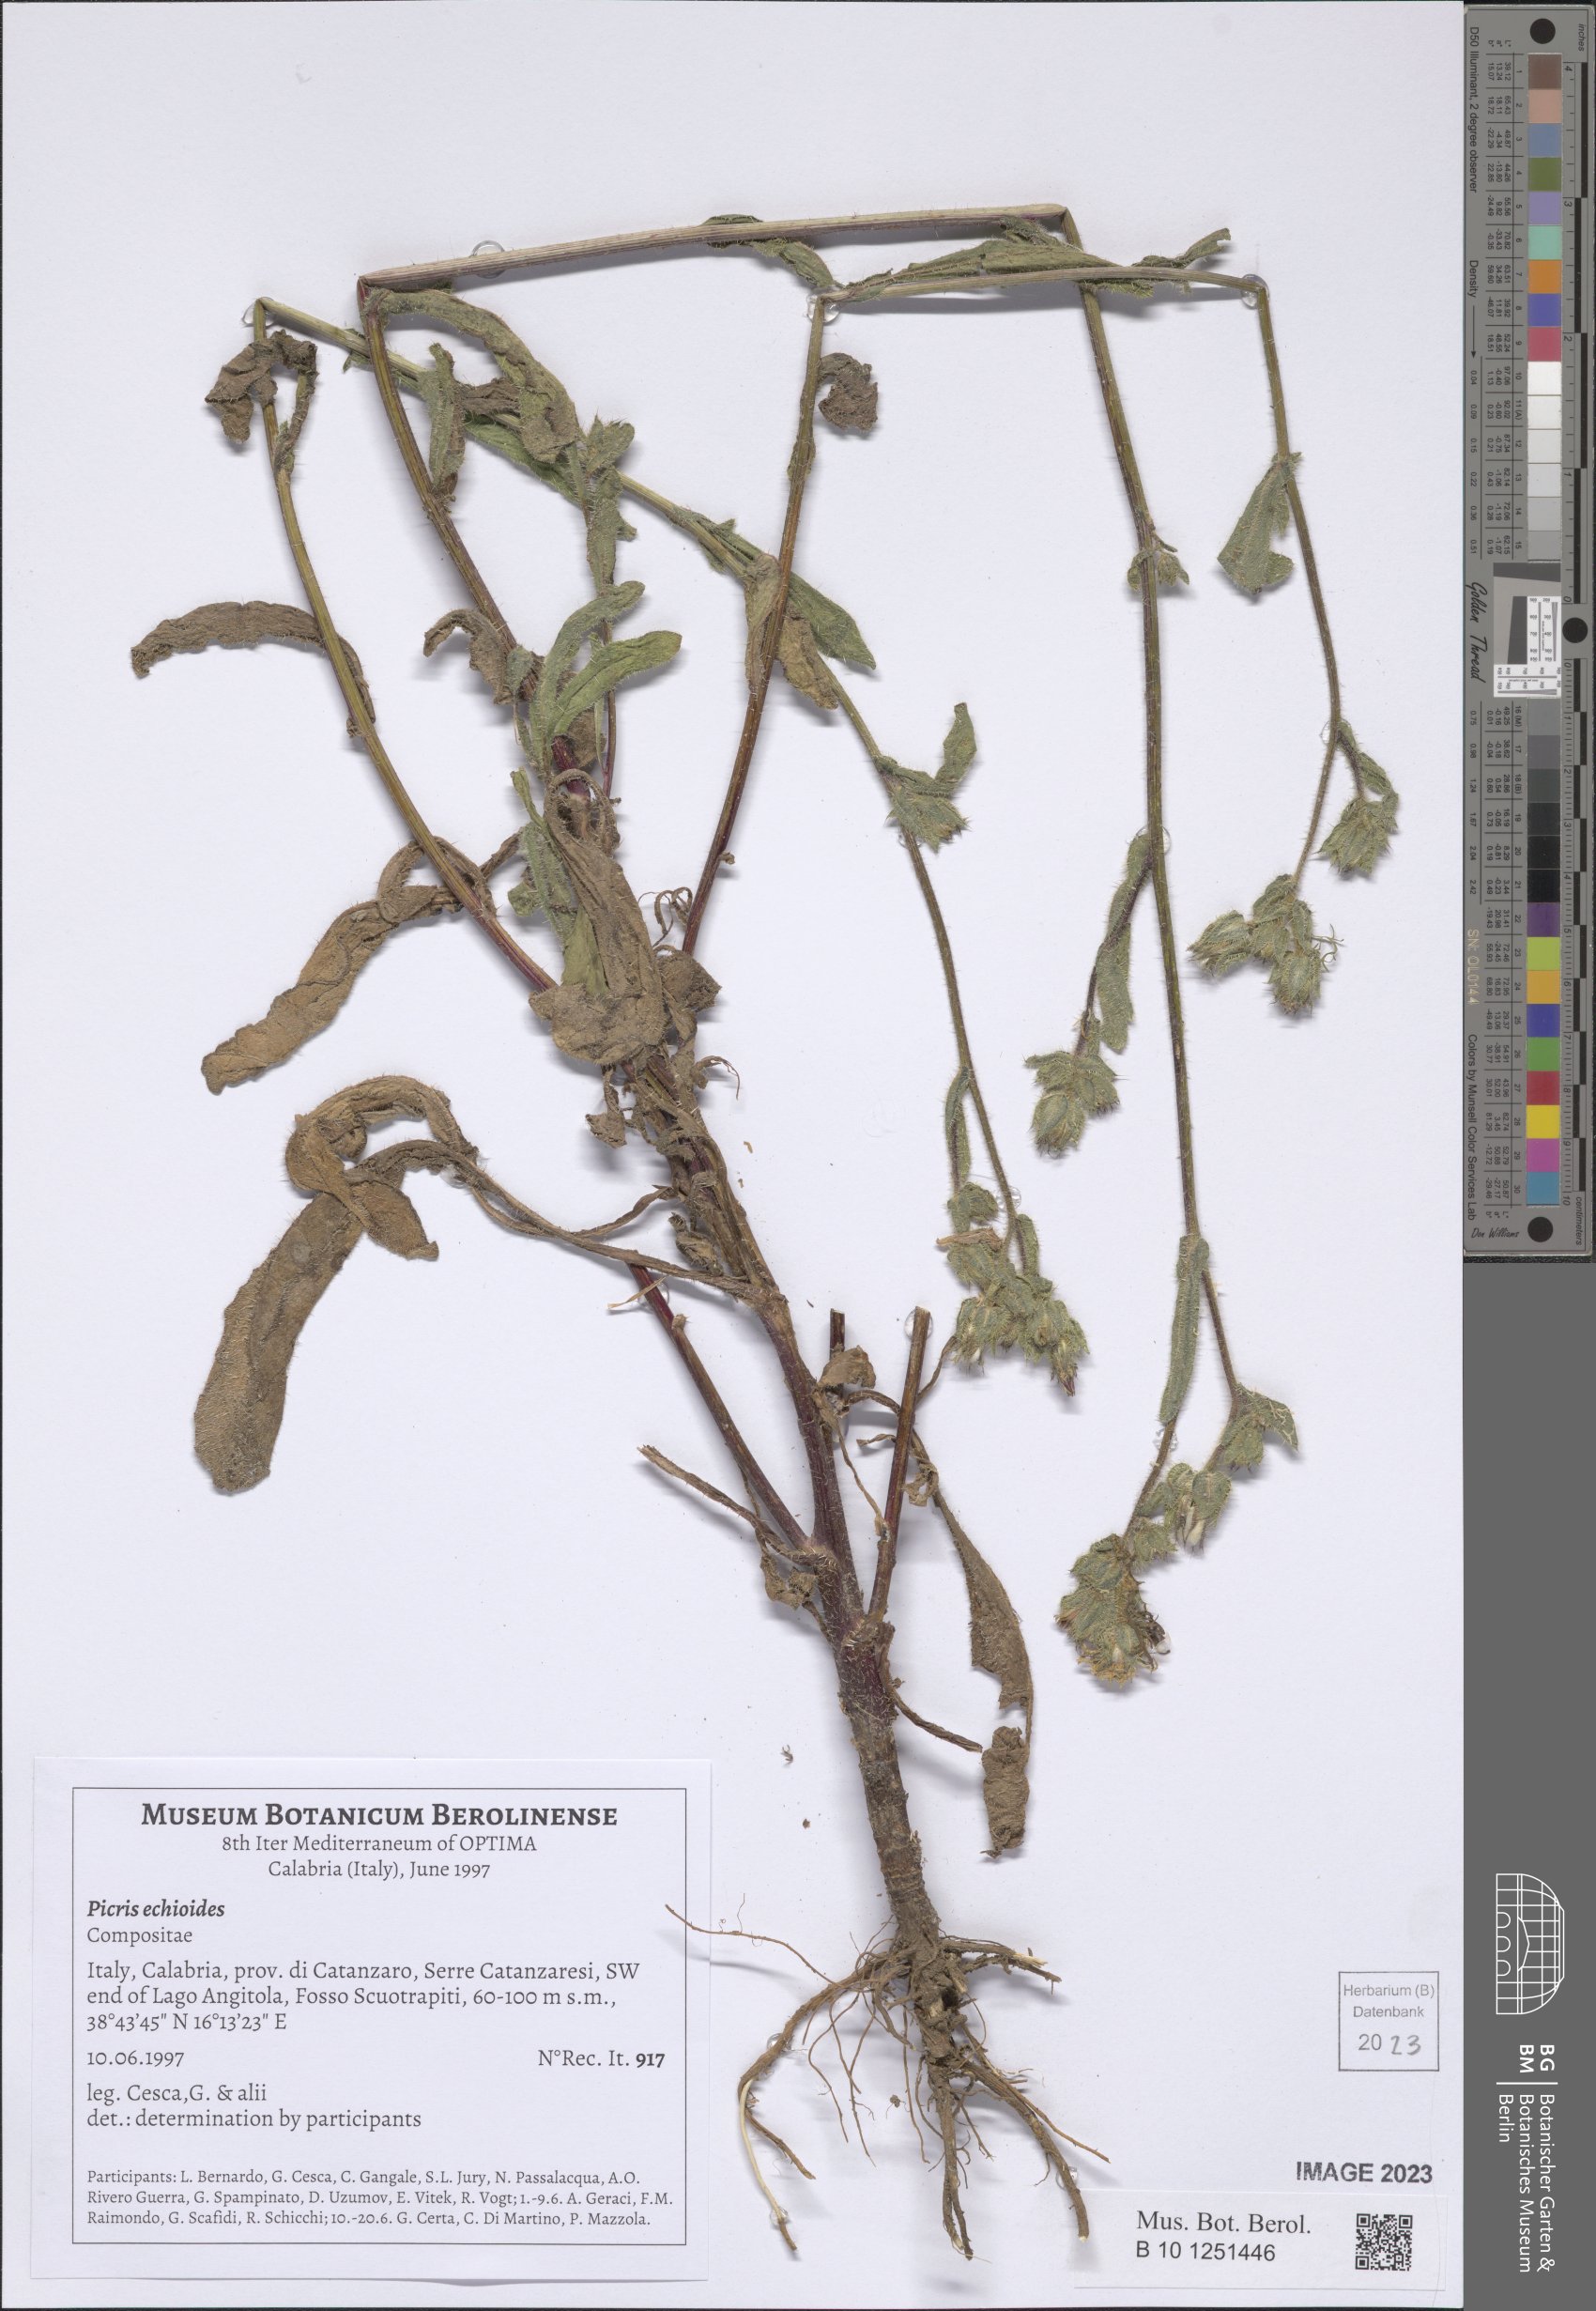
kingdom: Plantae
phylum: Tracheophyta
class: Magnoliopsida
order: Asterales
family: Asteraceae
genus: Helminthotheca
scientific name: Helminthotheca echioides
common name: Ox-tongue
